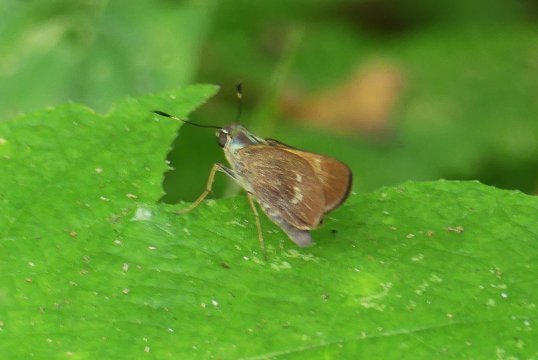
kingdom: Animalia
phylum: Arthropoda
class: Insecta
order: Lepidoptera
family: Hesperiidae
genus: Decinea
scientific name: Decinea
